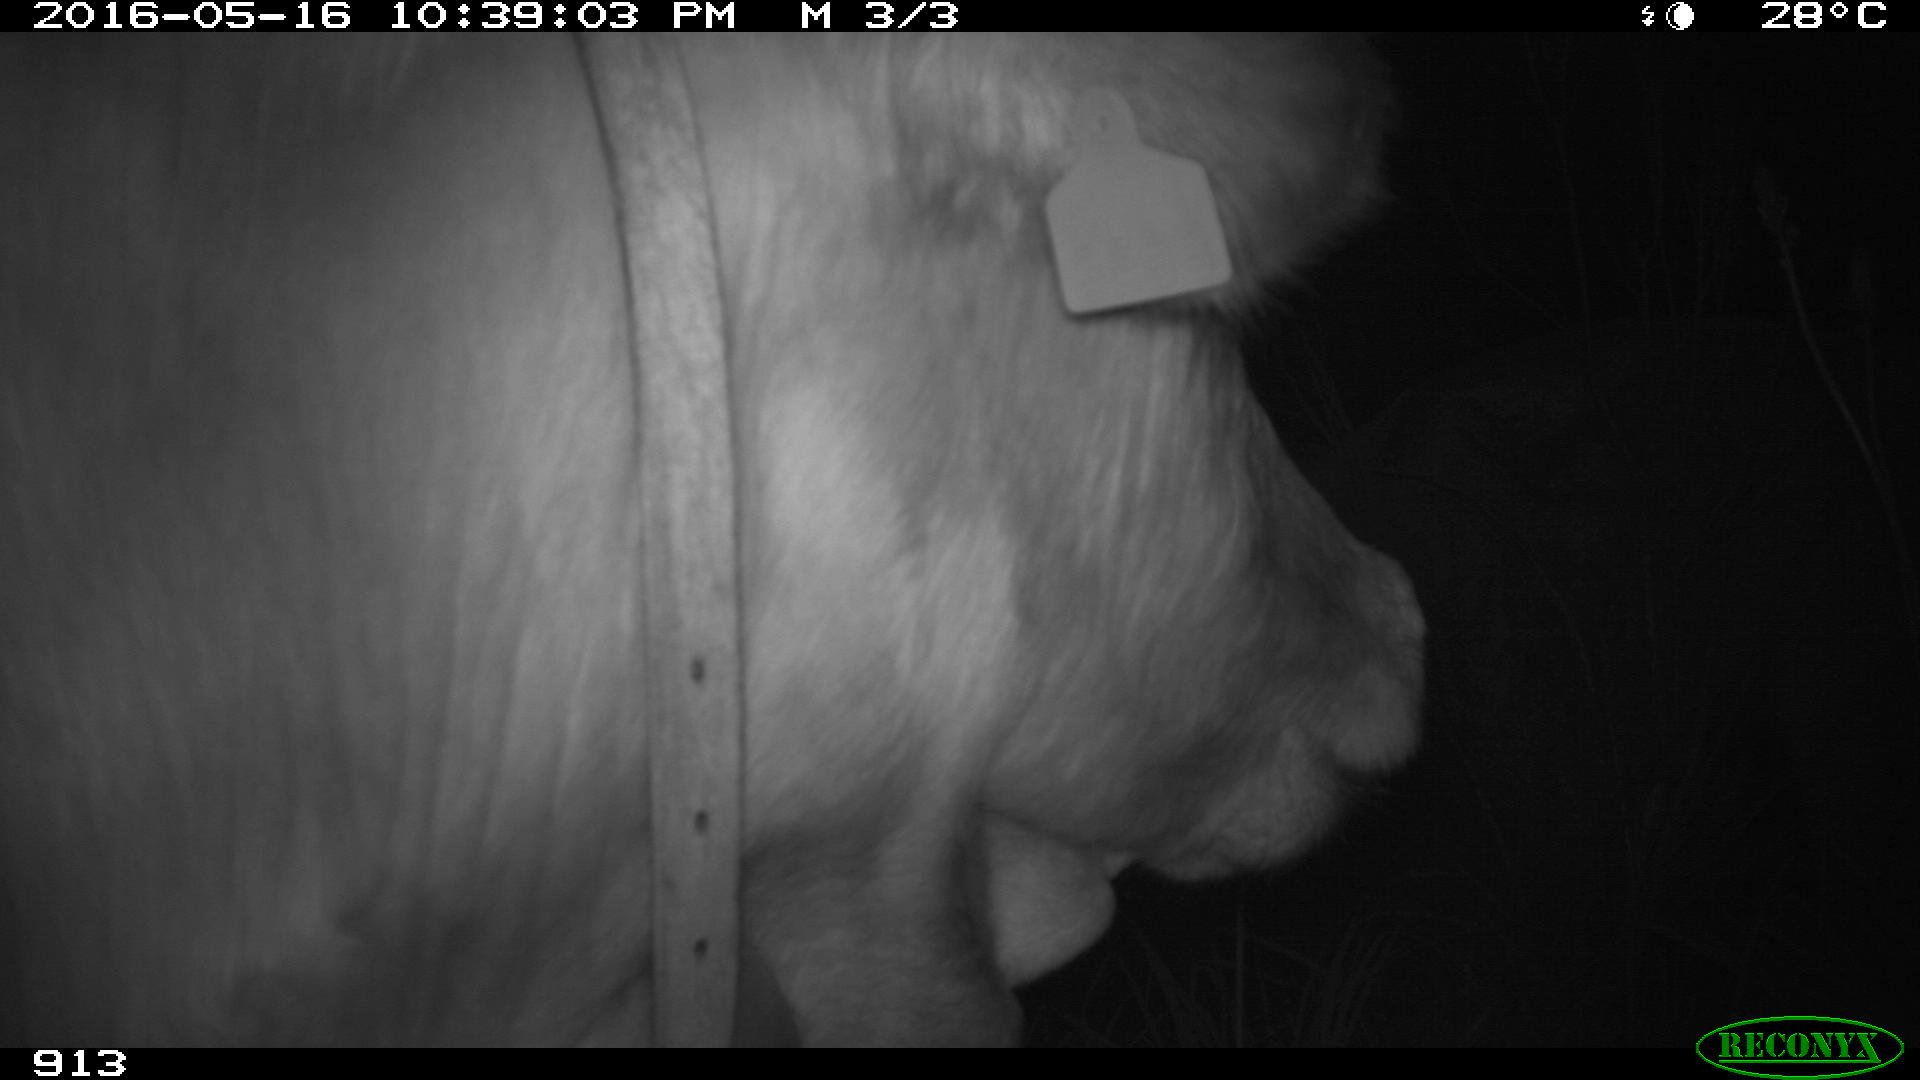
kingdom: Animalia
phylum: Chordata
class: Mammalia
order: Artiodactyla
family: Bovidae
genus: Bos
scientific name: Bos taurus
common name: Domesticated cattle
